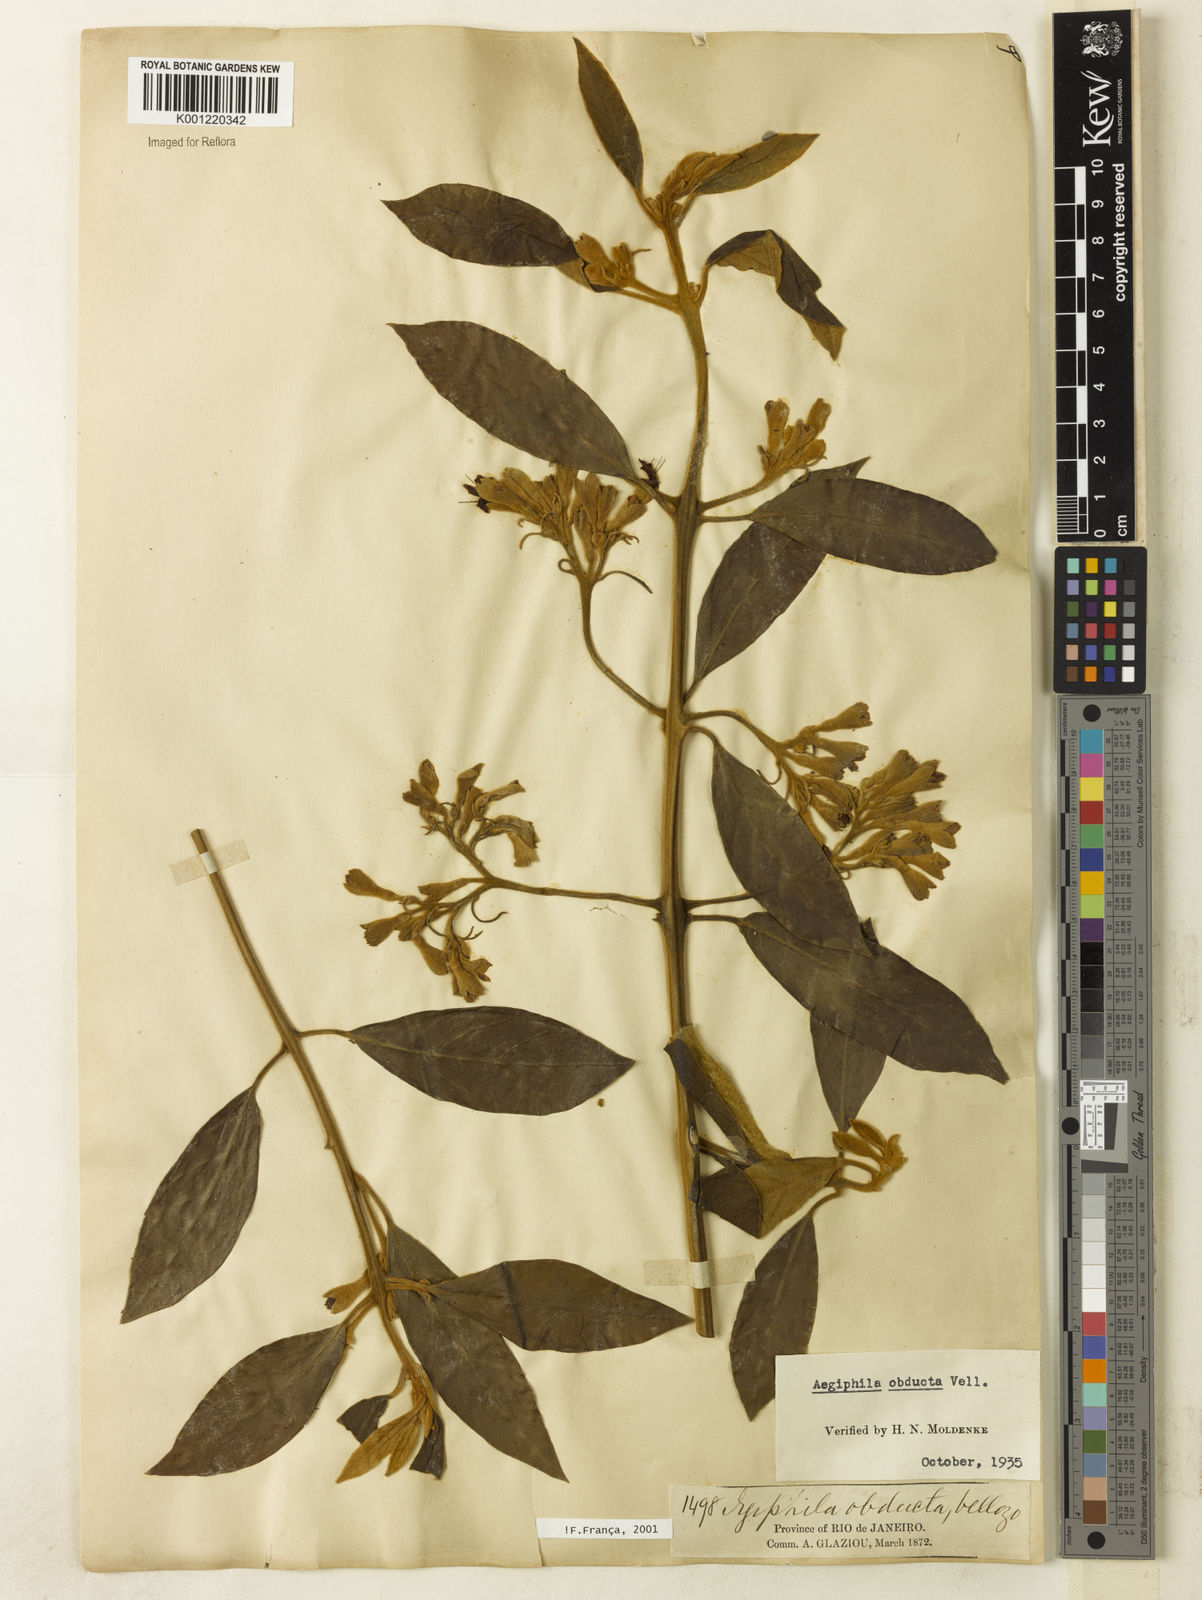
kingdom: Plantae
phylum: Tracheophyta
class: Magnoliopsida
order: Lamiales
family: Lamiaceae
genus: Aegiphila
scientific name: Aegiphila obducta
